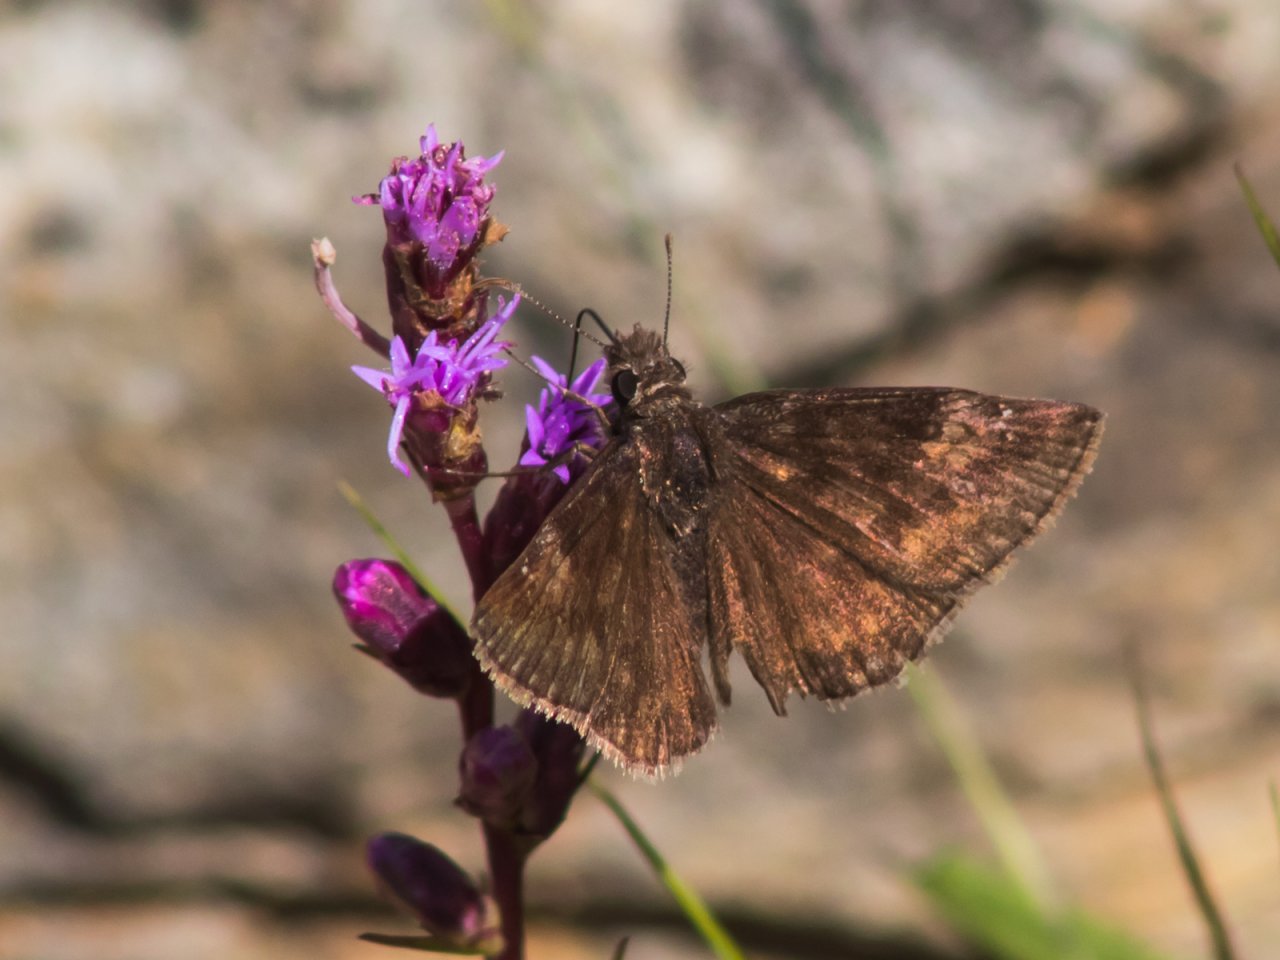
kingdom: Animalia
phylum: Arthropoda
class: Insecta
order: Lepidoptera
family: Hesperiidae
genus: Gesta
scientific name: Gesta
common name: Wild Indigo Duskywing
